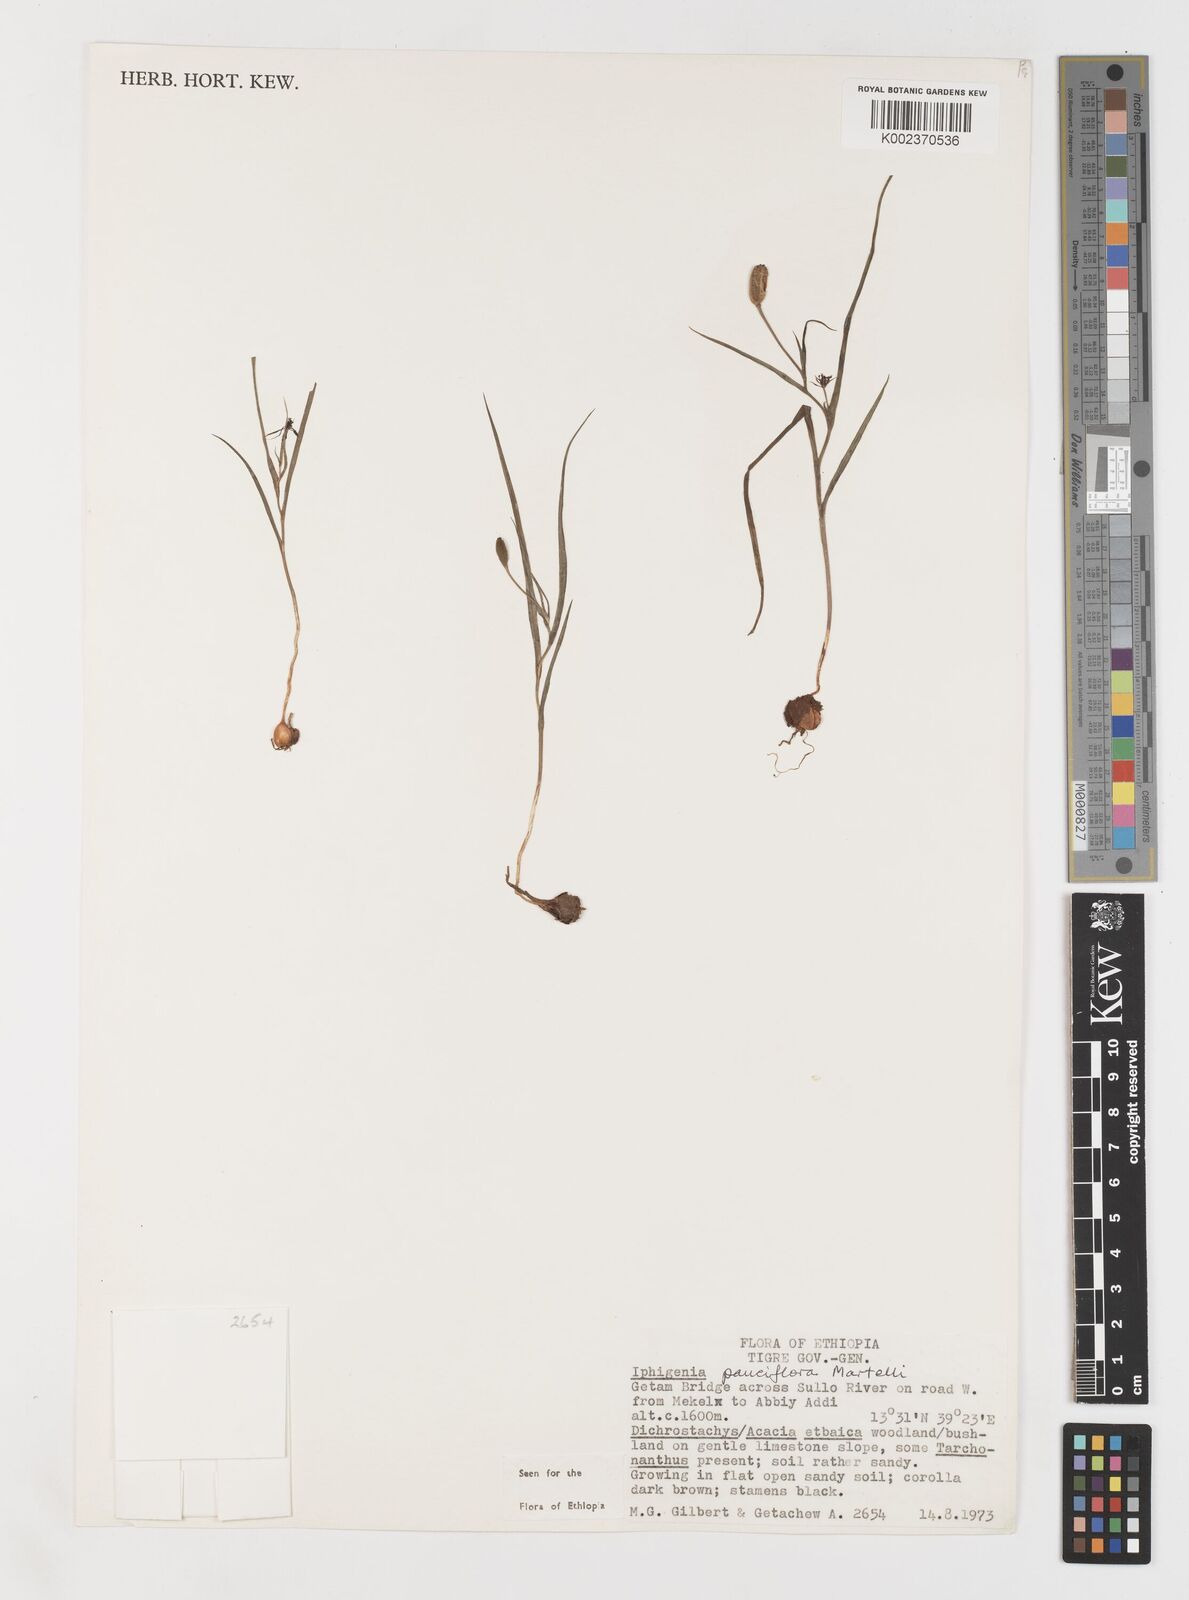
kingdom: Plantae
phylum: Tracheophyta
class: Liliopsida
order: Liliales
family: Colchicaceae
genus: Iphigenia
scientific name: Iphigenia pauciflora
